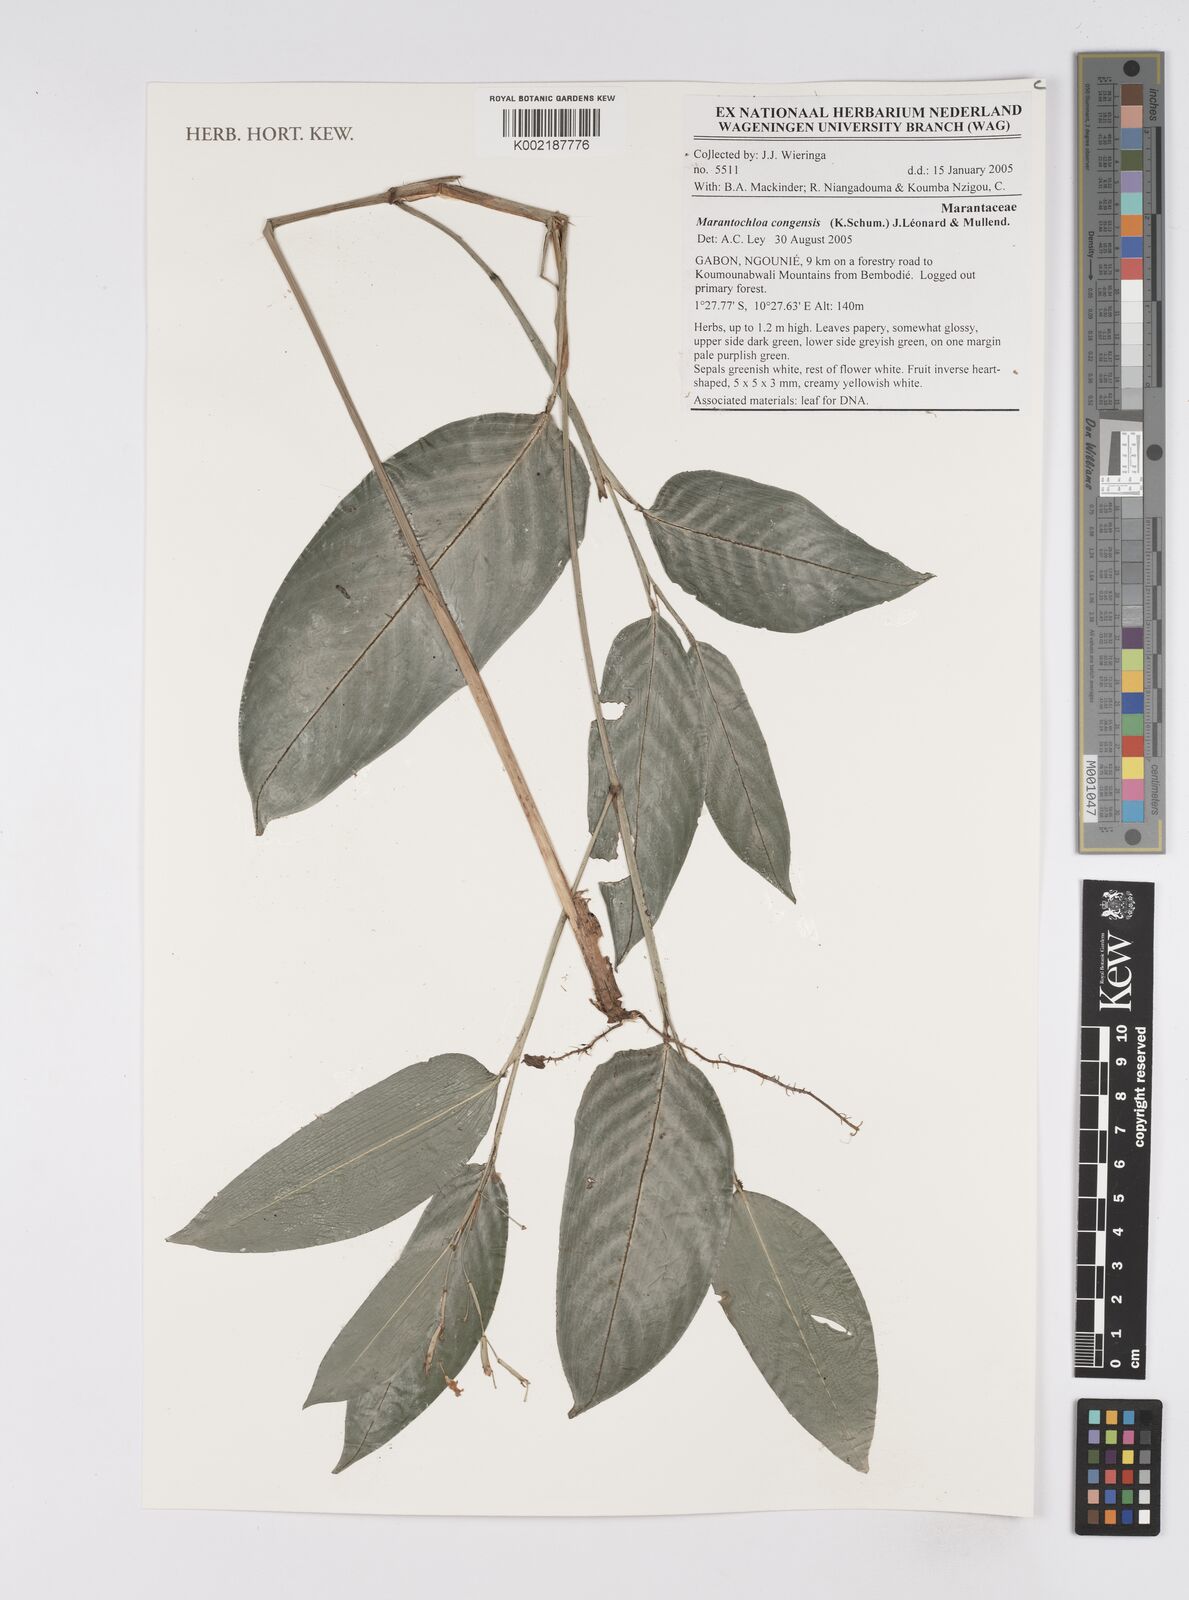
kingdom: Plantae
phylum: Tracheophyta
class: Liliopsida
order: Zingiberales
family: Marantaceae
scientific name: Marantaceae
